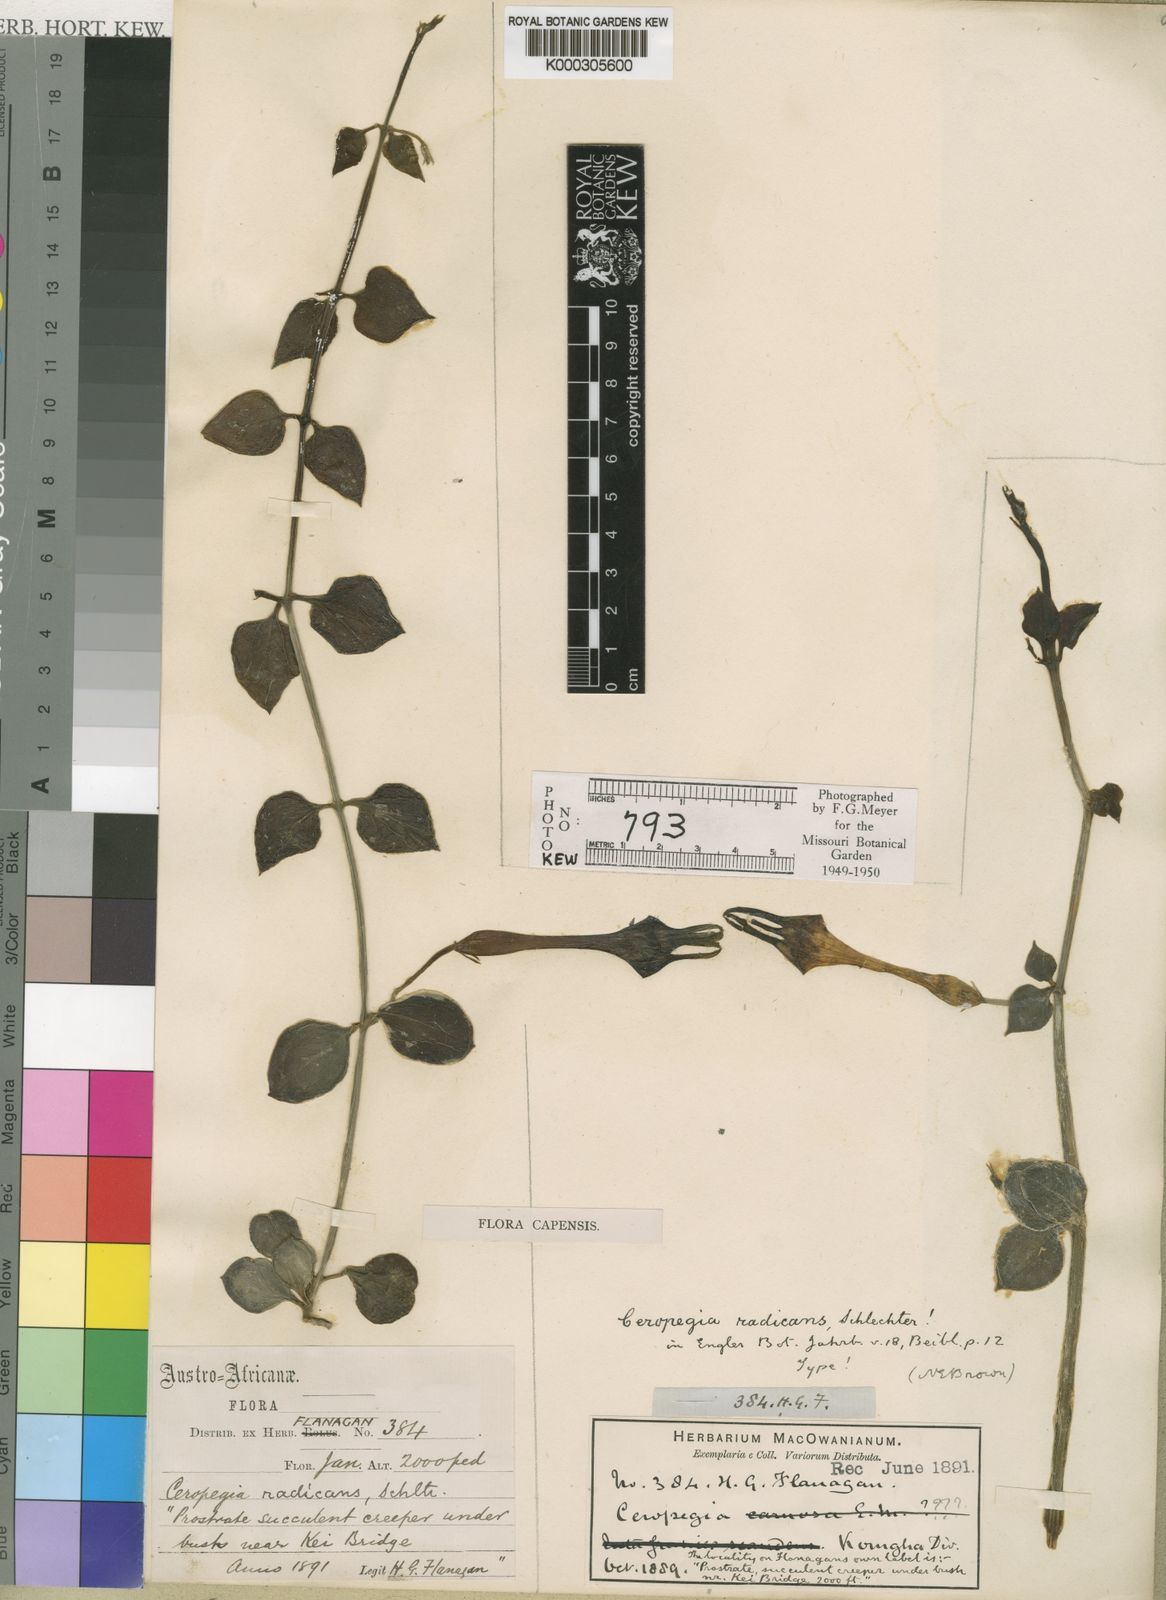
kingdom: Plantae
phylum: Tracheophyta
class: Magnoliopsida
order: Gentianales
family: Apocynaceae
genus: Ceropegia
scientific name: Ceropegia radicans
